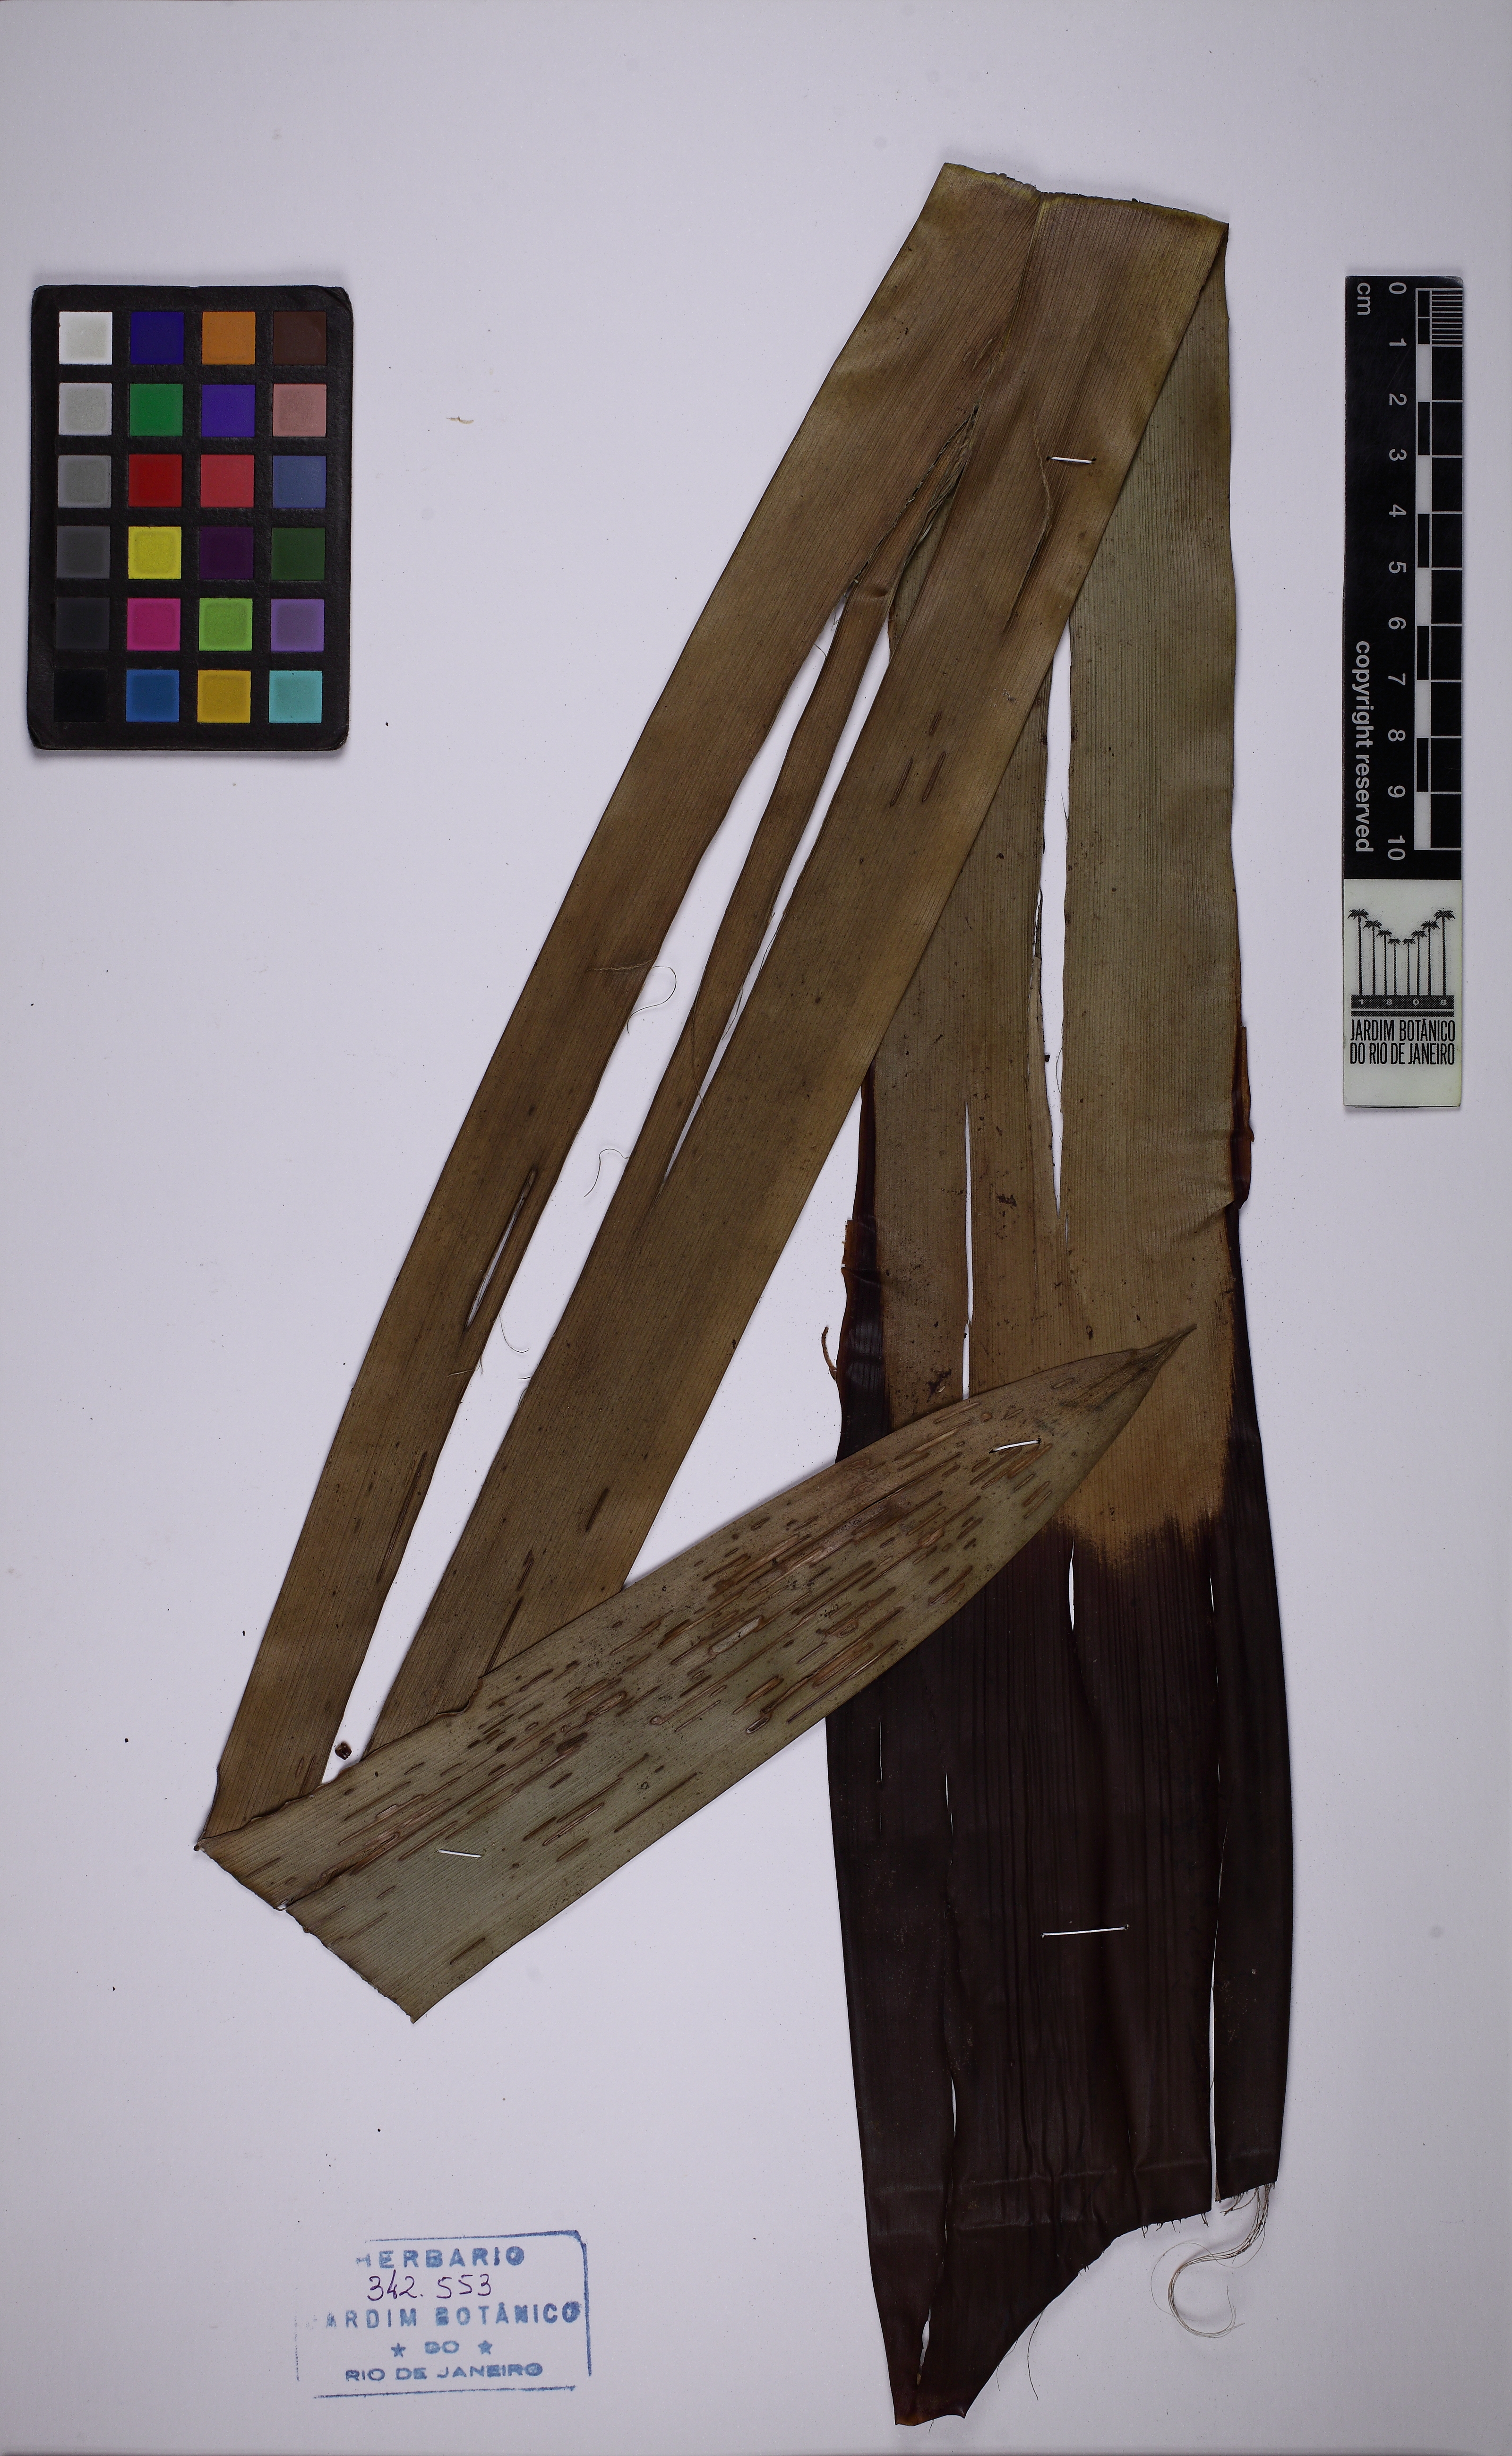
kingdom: Plantae
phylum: Tracheophyta
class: Liliopsida
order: Poales
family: Bromeliaceae
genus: Vriesea
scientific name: Vriesea tijucana
